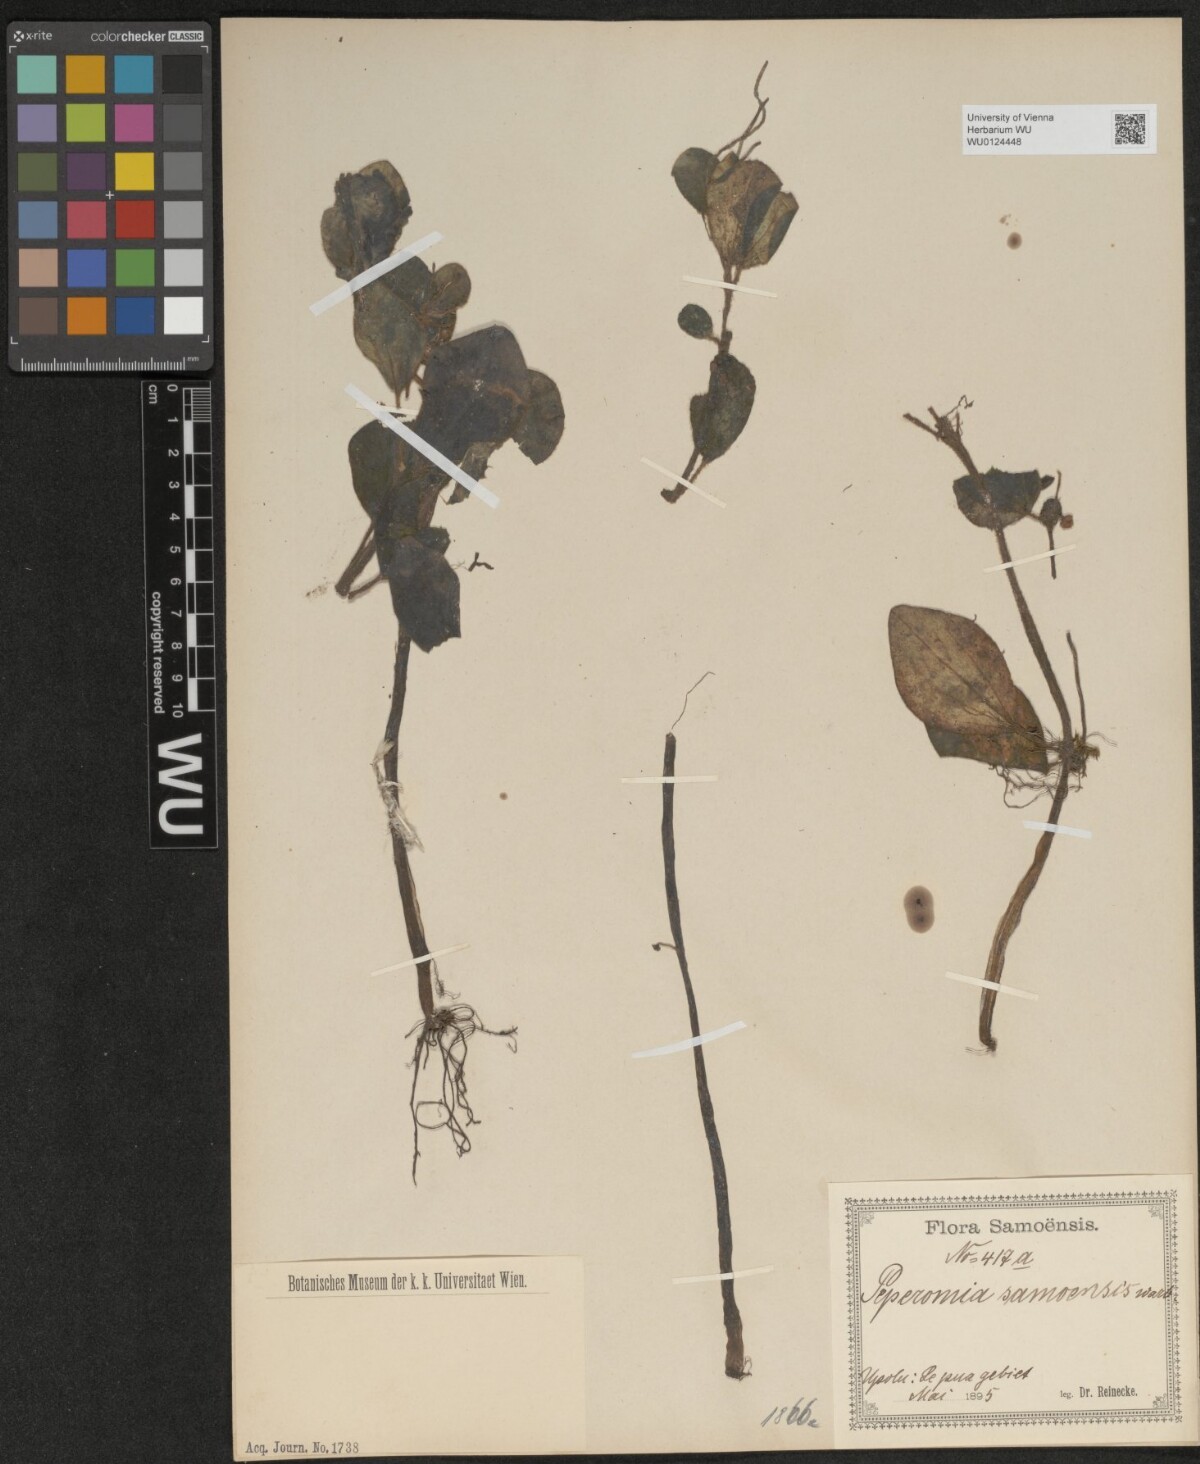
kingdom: Plantae
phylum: Tracheophyta
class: Magnoliopsida
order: Piperales
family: Piperaceae
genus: Peperomia
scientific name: Peperomia samoensis
